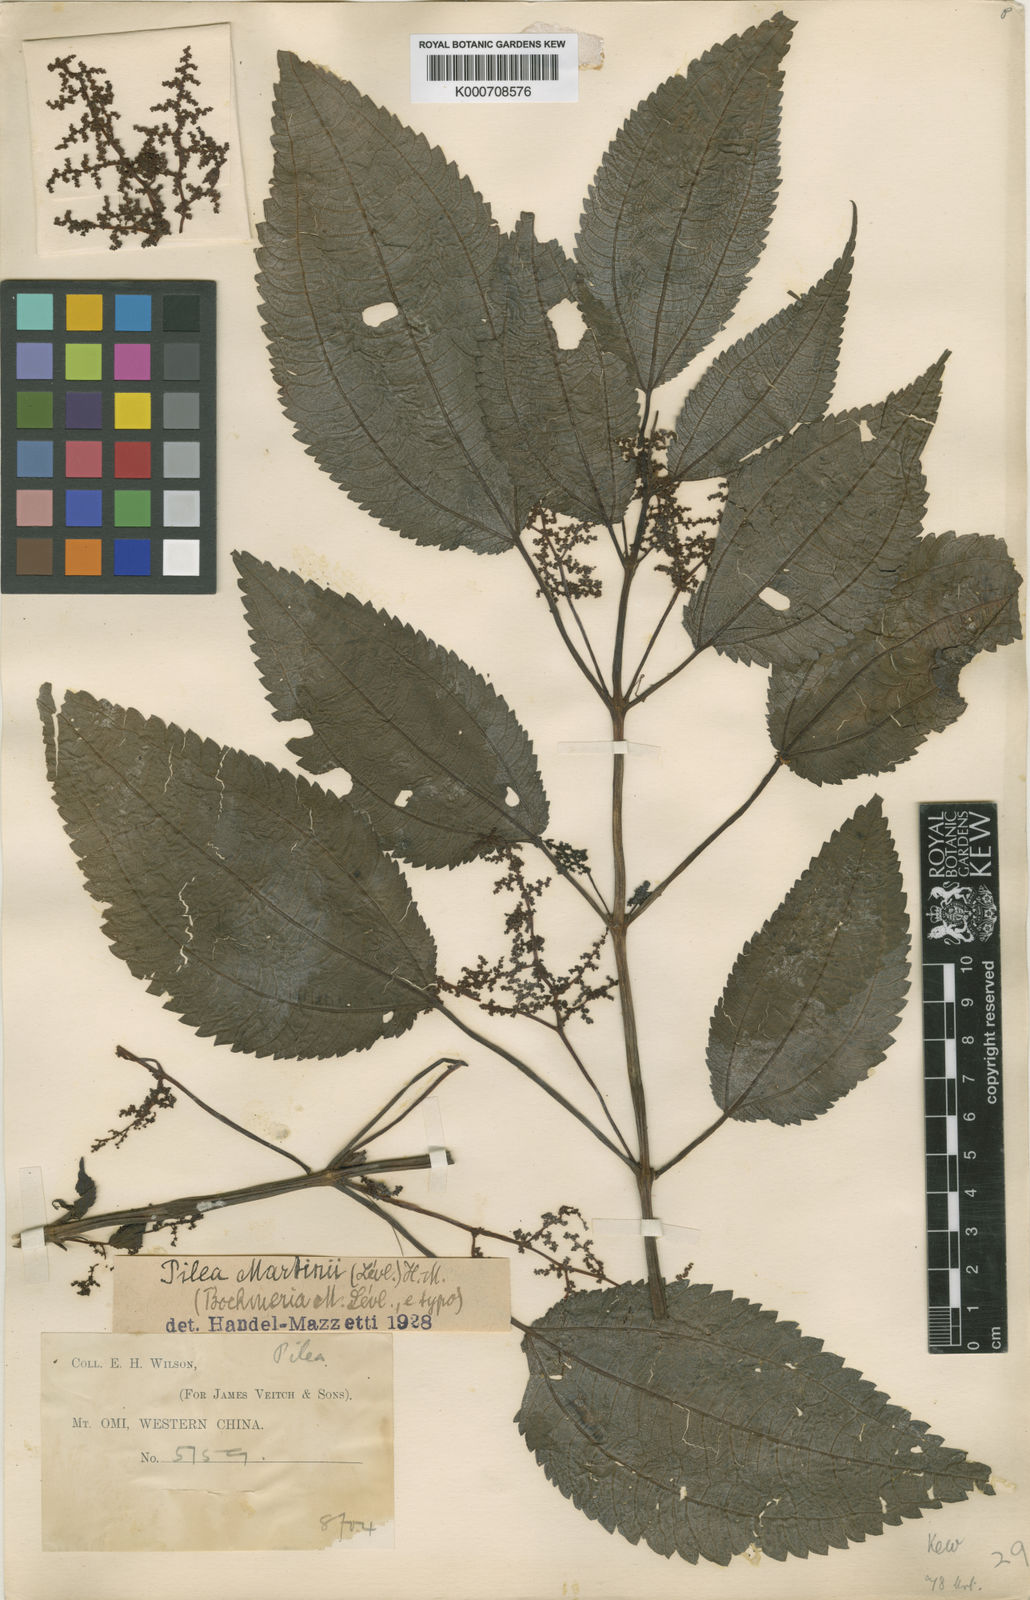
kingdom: Plantae
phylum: Tracheophyta
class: Magnoliopsida
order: Rosales
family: Urticaceae
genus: Pilea
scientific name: Pilea martini
